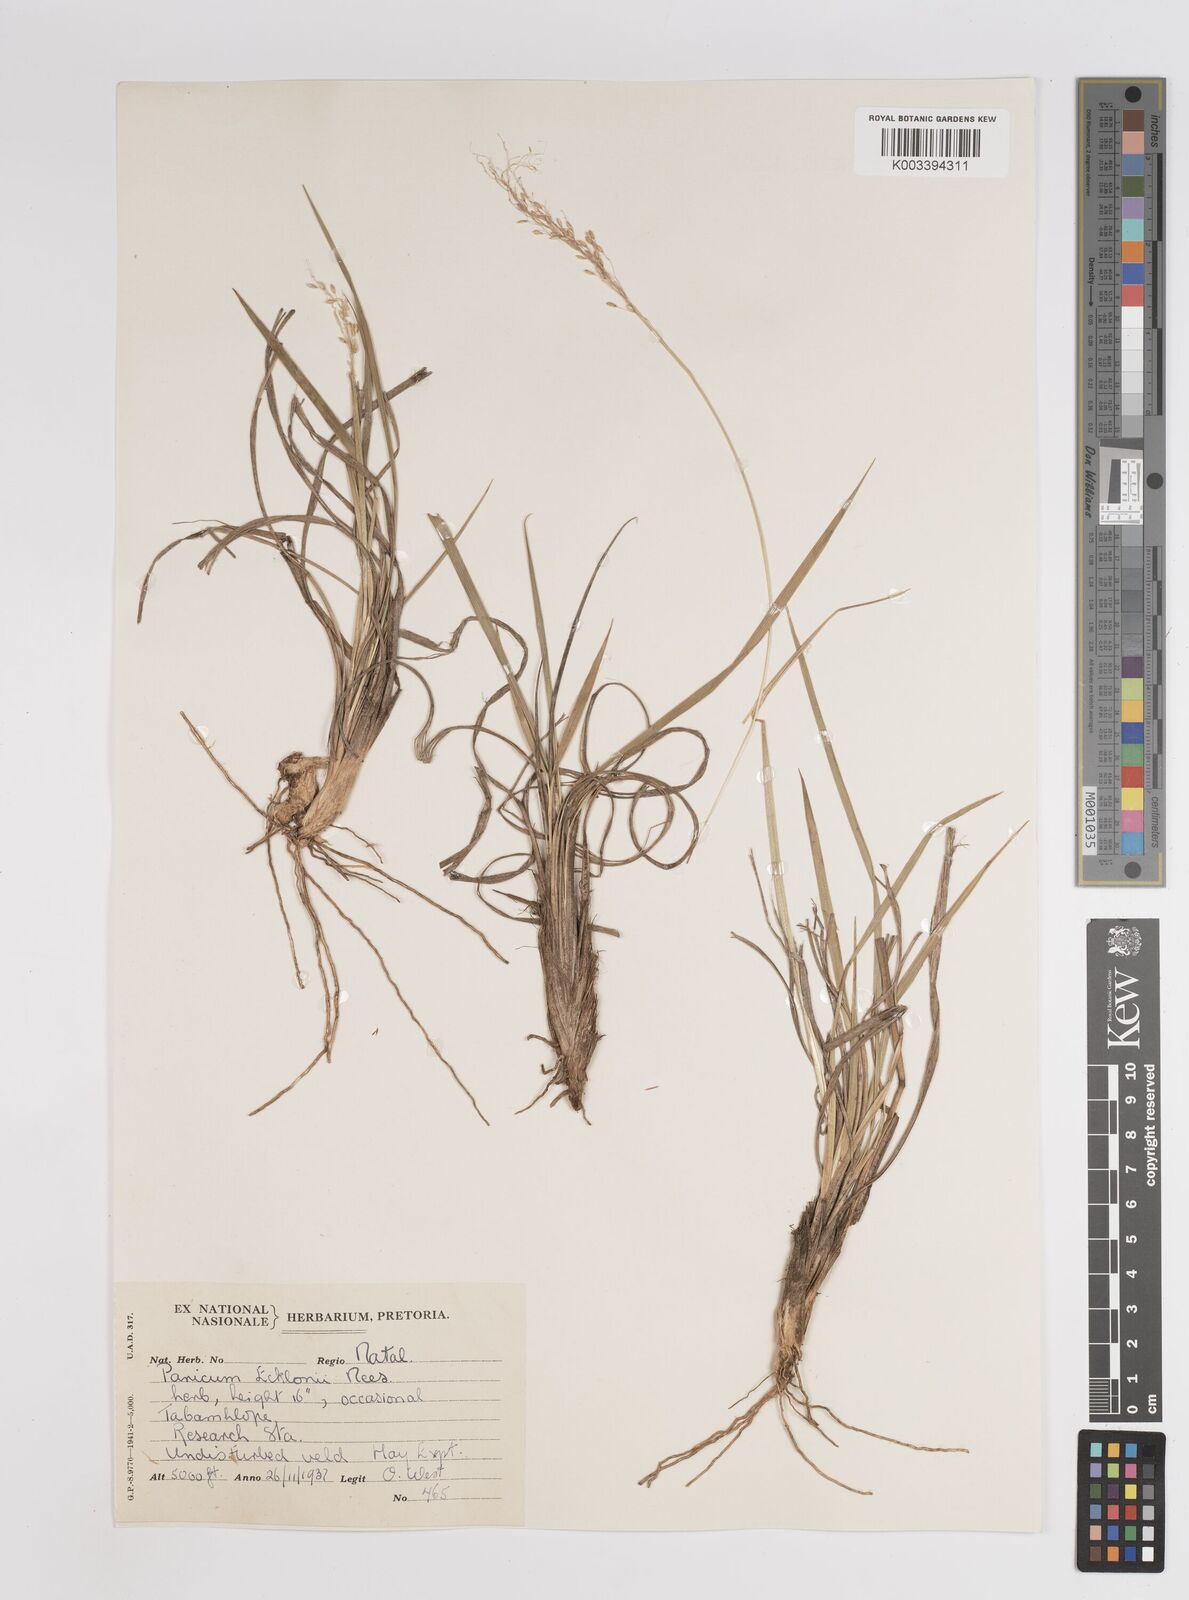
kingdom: Plantae
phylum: Tracheophyta
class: Liliopsida
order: Poales
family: Poaceae
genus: Adenochloa
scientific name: Adenochloa ecklonii
